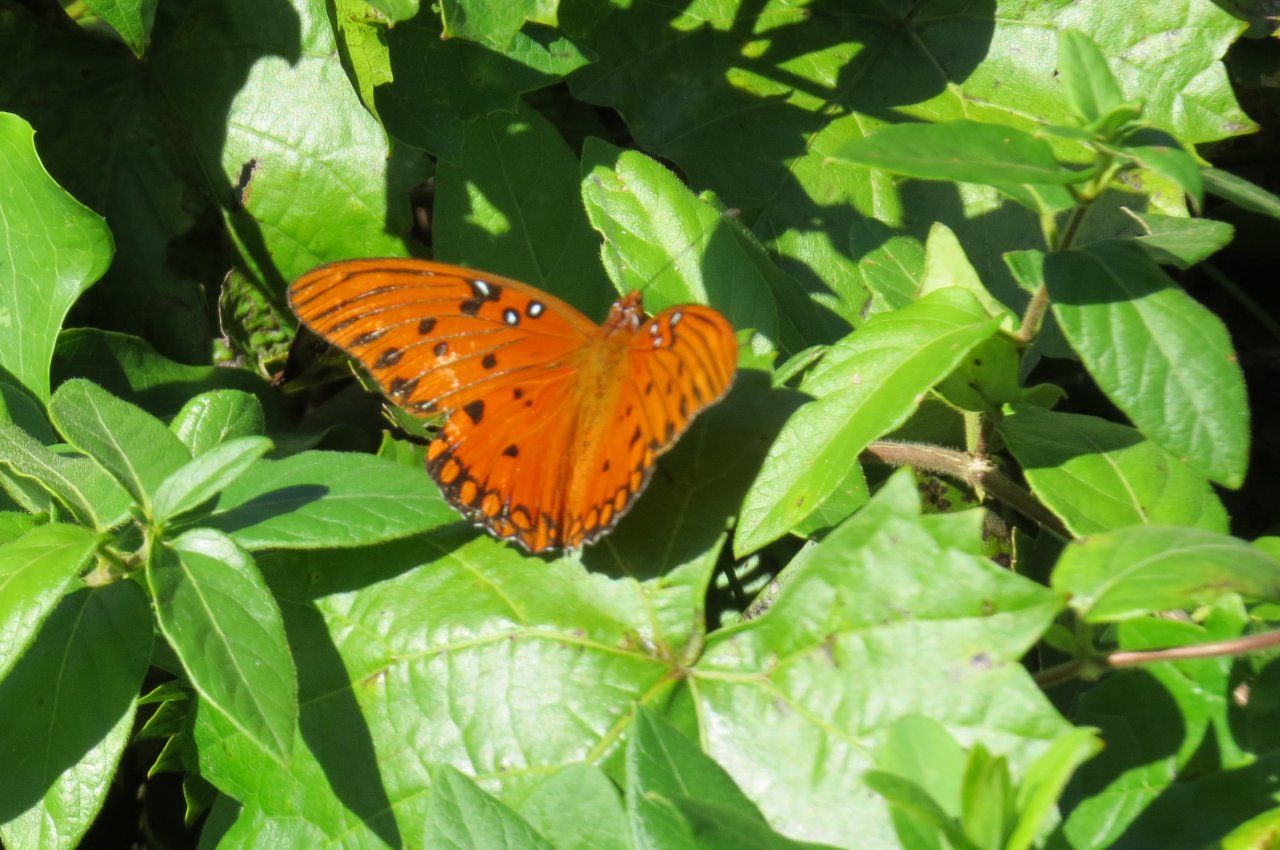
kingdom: Animalia
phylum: Arthropoda
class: Insecta
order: Lepidoptera
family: Nymphalidae
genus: Dione
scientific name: Dione vanillae
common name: Gulf Fritillary
